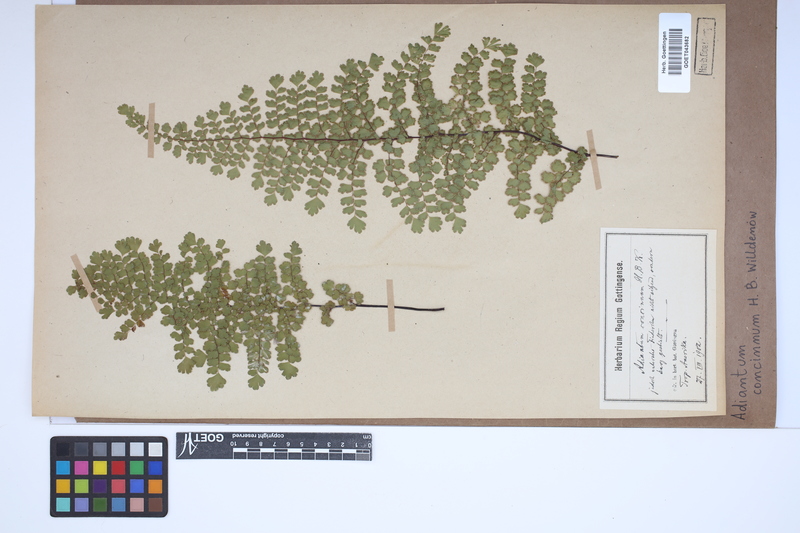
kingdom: Plantae
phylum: Tracheophyta
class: Polypodiopsida
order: Polypodiales
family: Pteridaceae
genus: Adiantum
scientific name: Adiantum concinnum
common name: Brittle maidenhair fern
